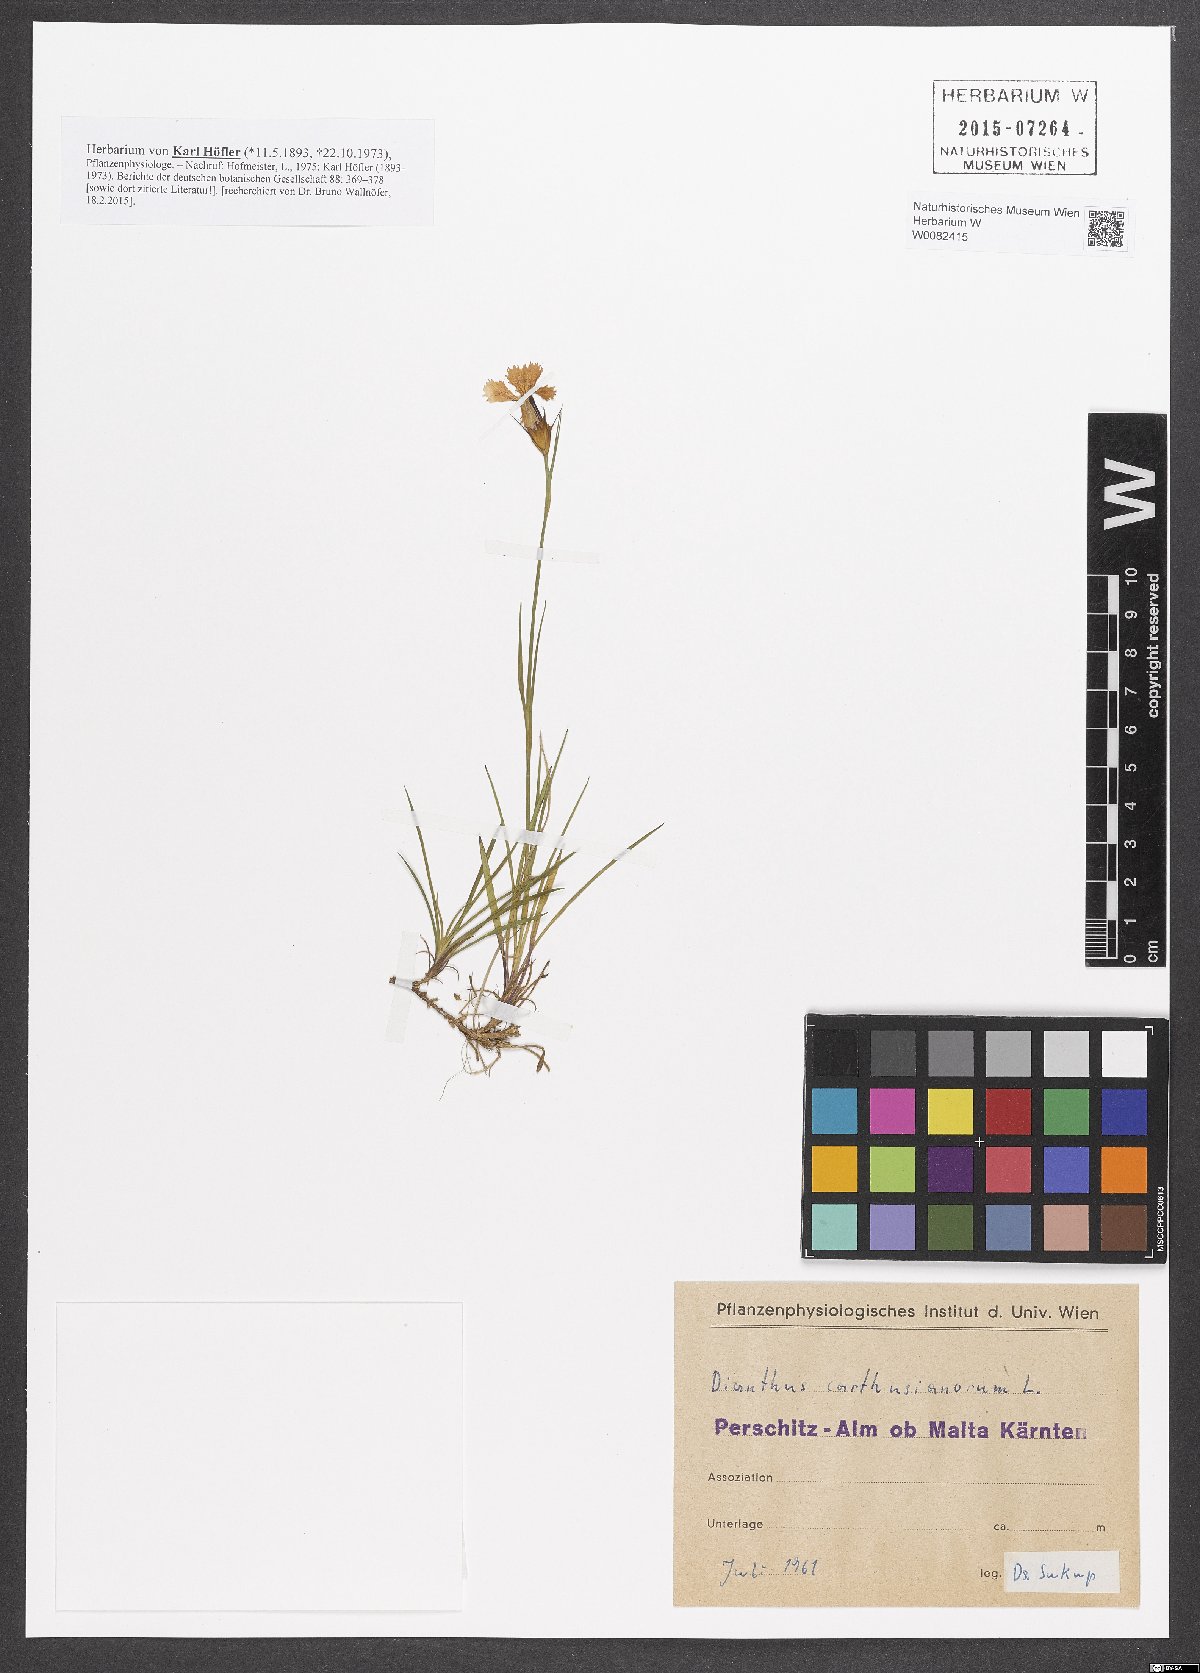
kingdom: Plantae
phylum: Tracheophyta
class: Magnoliopsida
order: Caryophyllales
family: Caryophyllaceae
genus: Dianthus
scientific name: Dianthus carthusianorum
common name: Carthusian pink
